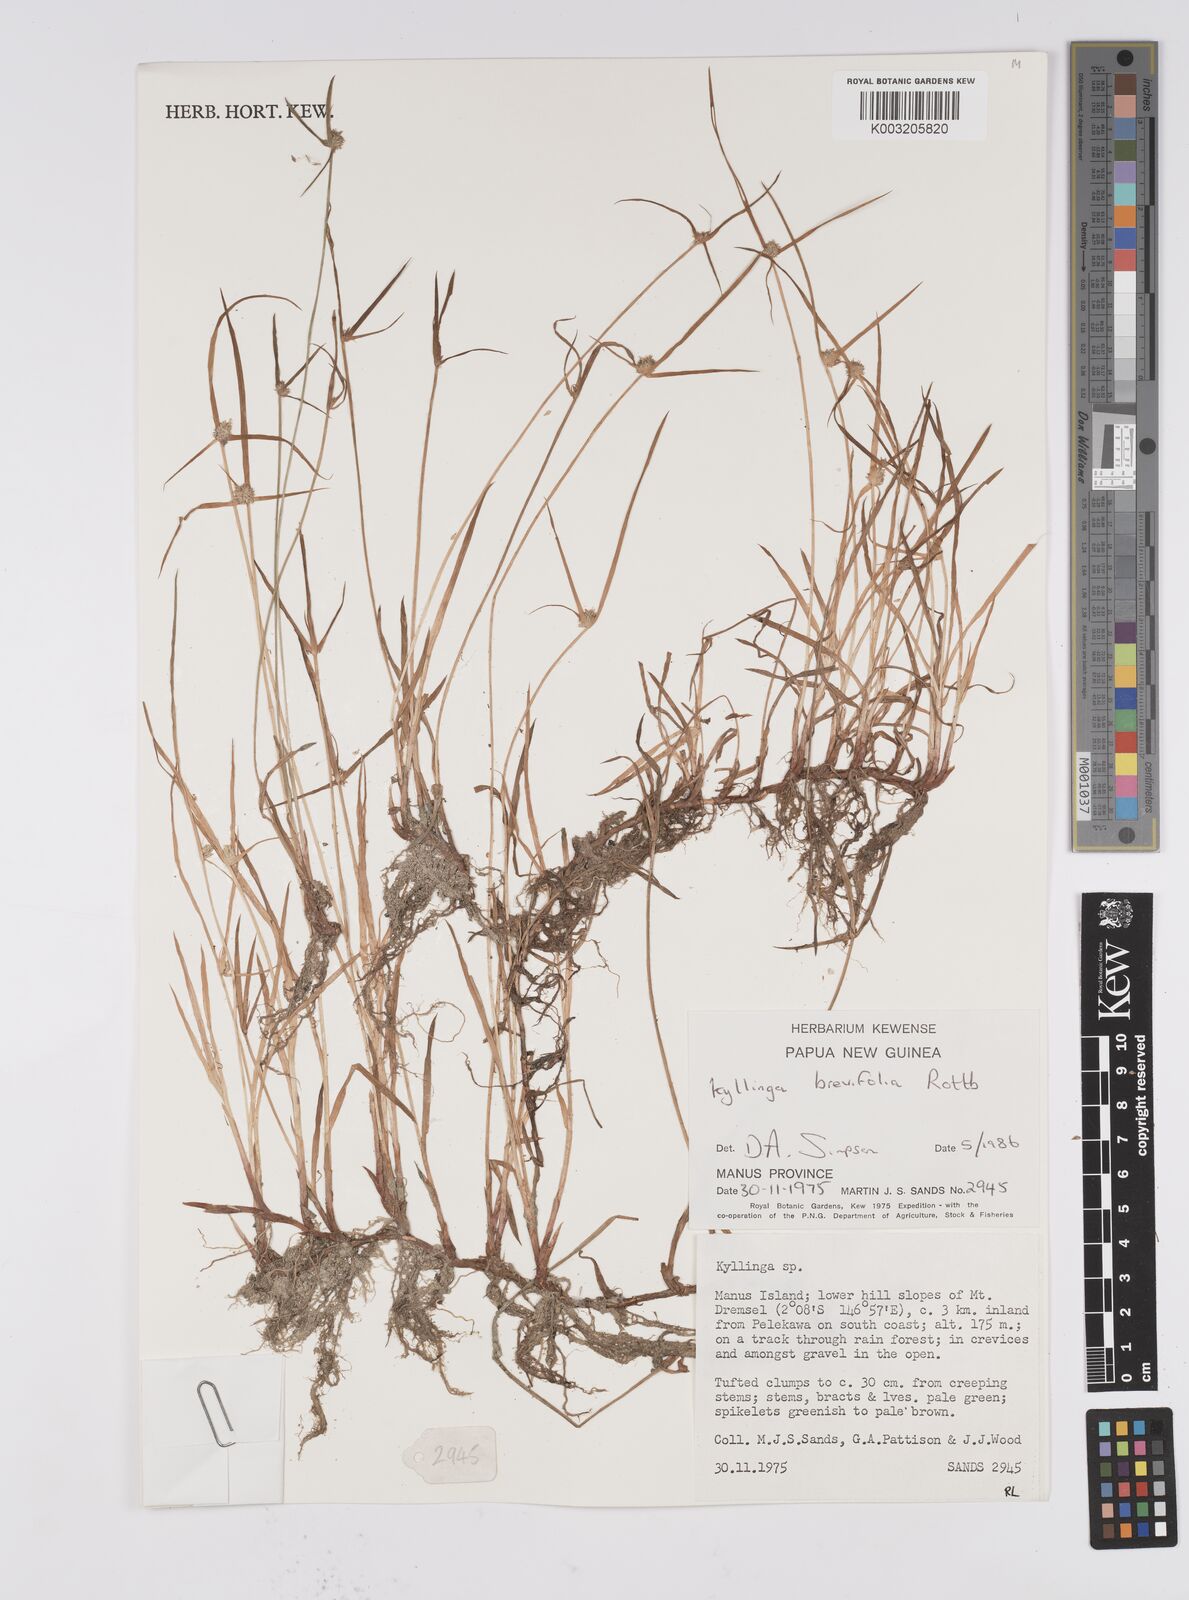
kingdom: Plantae
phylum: Tracheophyta
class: Liliopsida
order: Poales
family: Cyperaceae
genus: Cyperus
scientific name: Cyperus brevifolius
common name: Globe kyllinga
